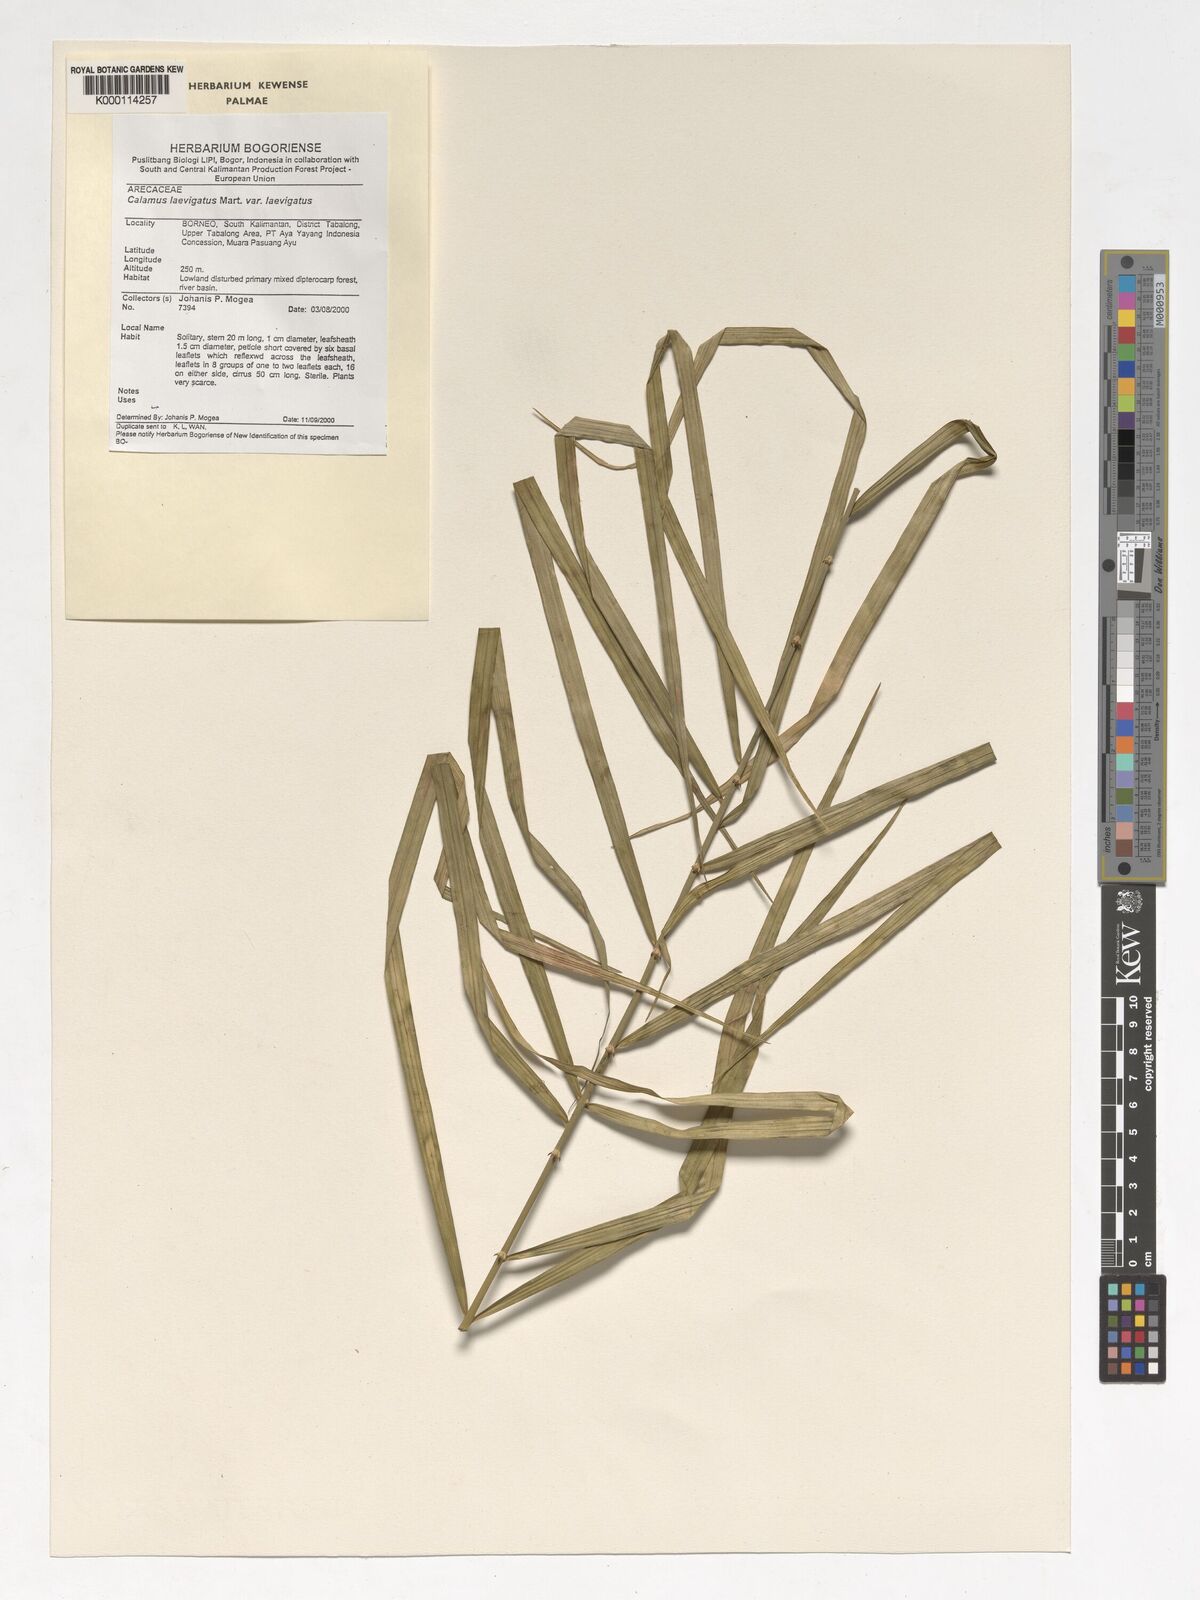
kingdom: Plantae
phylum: Tracheophyta
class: Liliopsida
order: Arecales
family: Arecaceae
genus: Calamus
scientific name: Calamus
